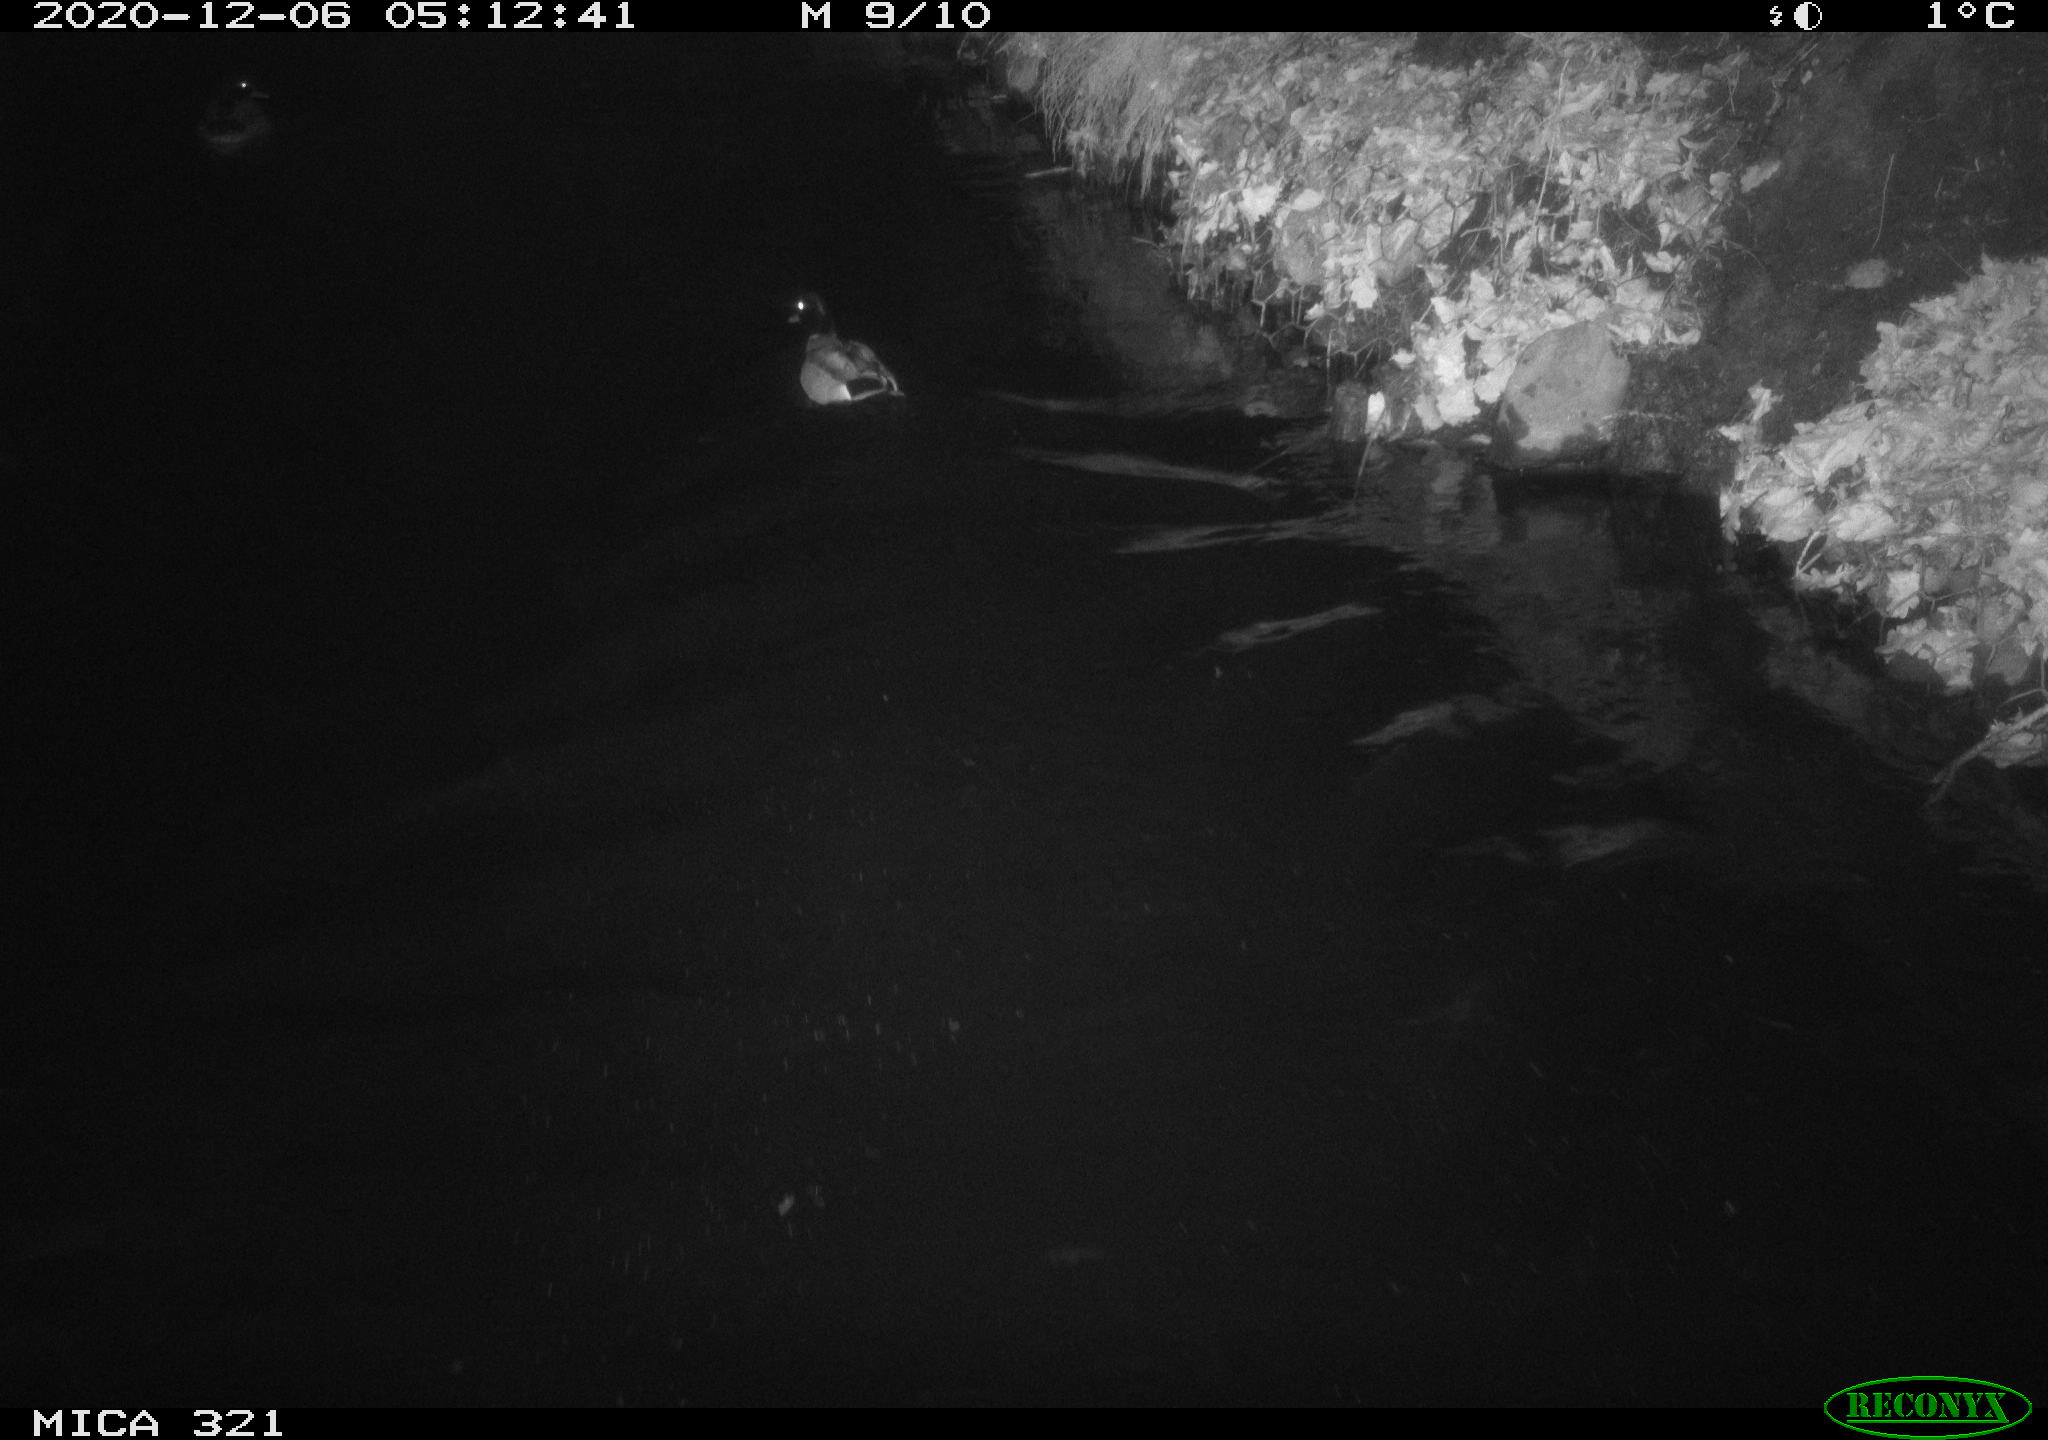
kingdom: Animalia
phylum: Chordata
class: Aves
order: Anseriformes
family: Anatidae
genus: Anas
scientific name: Anas platyrhynchos
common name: Mallard
